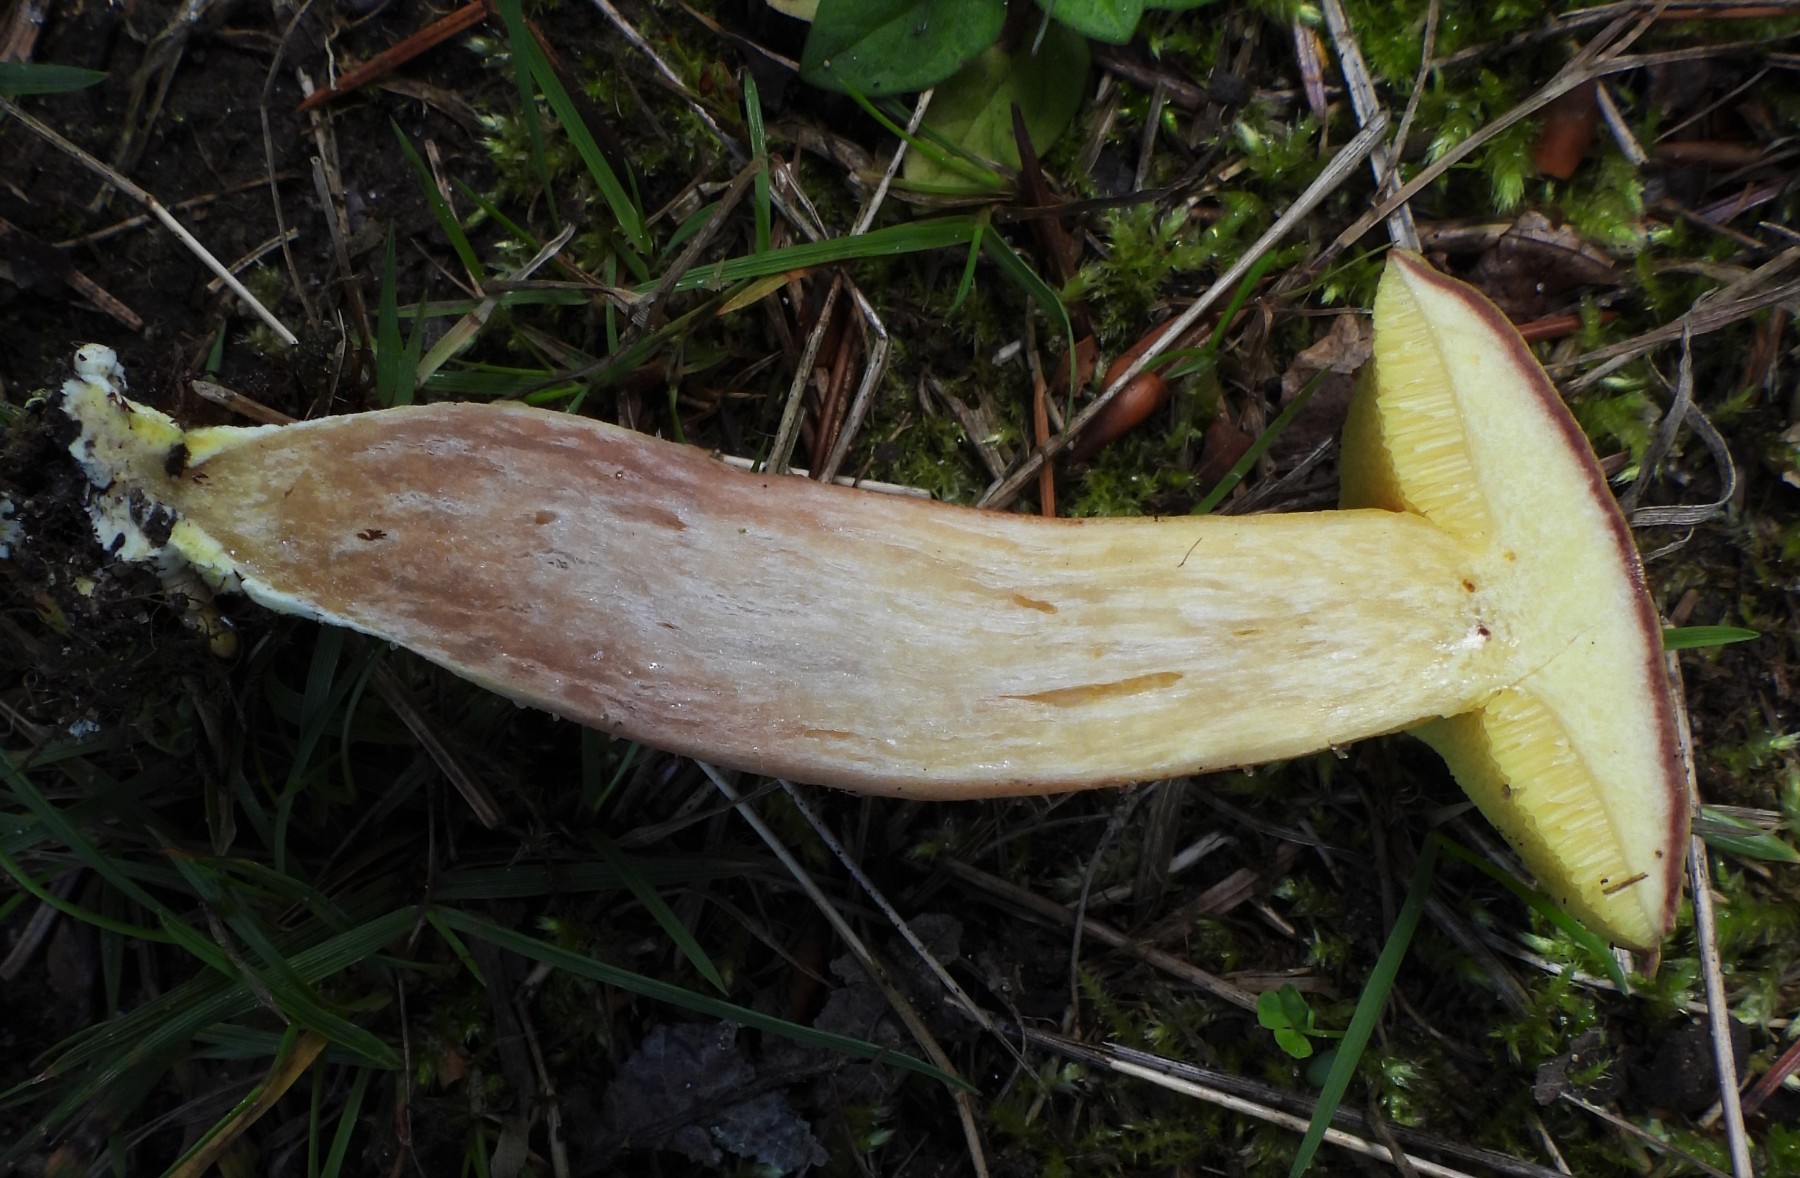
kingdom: Fungi
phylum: Basidiomycota
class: Agaricomycetes
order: Boletales
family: Boletaceae
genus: Xerocomus
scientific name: Xerocomus subtomentosus
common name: filtet rørhat
